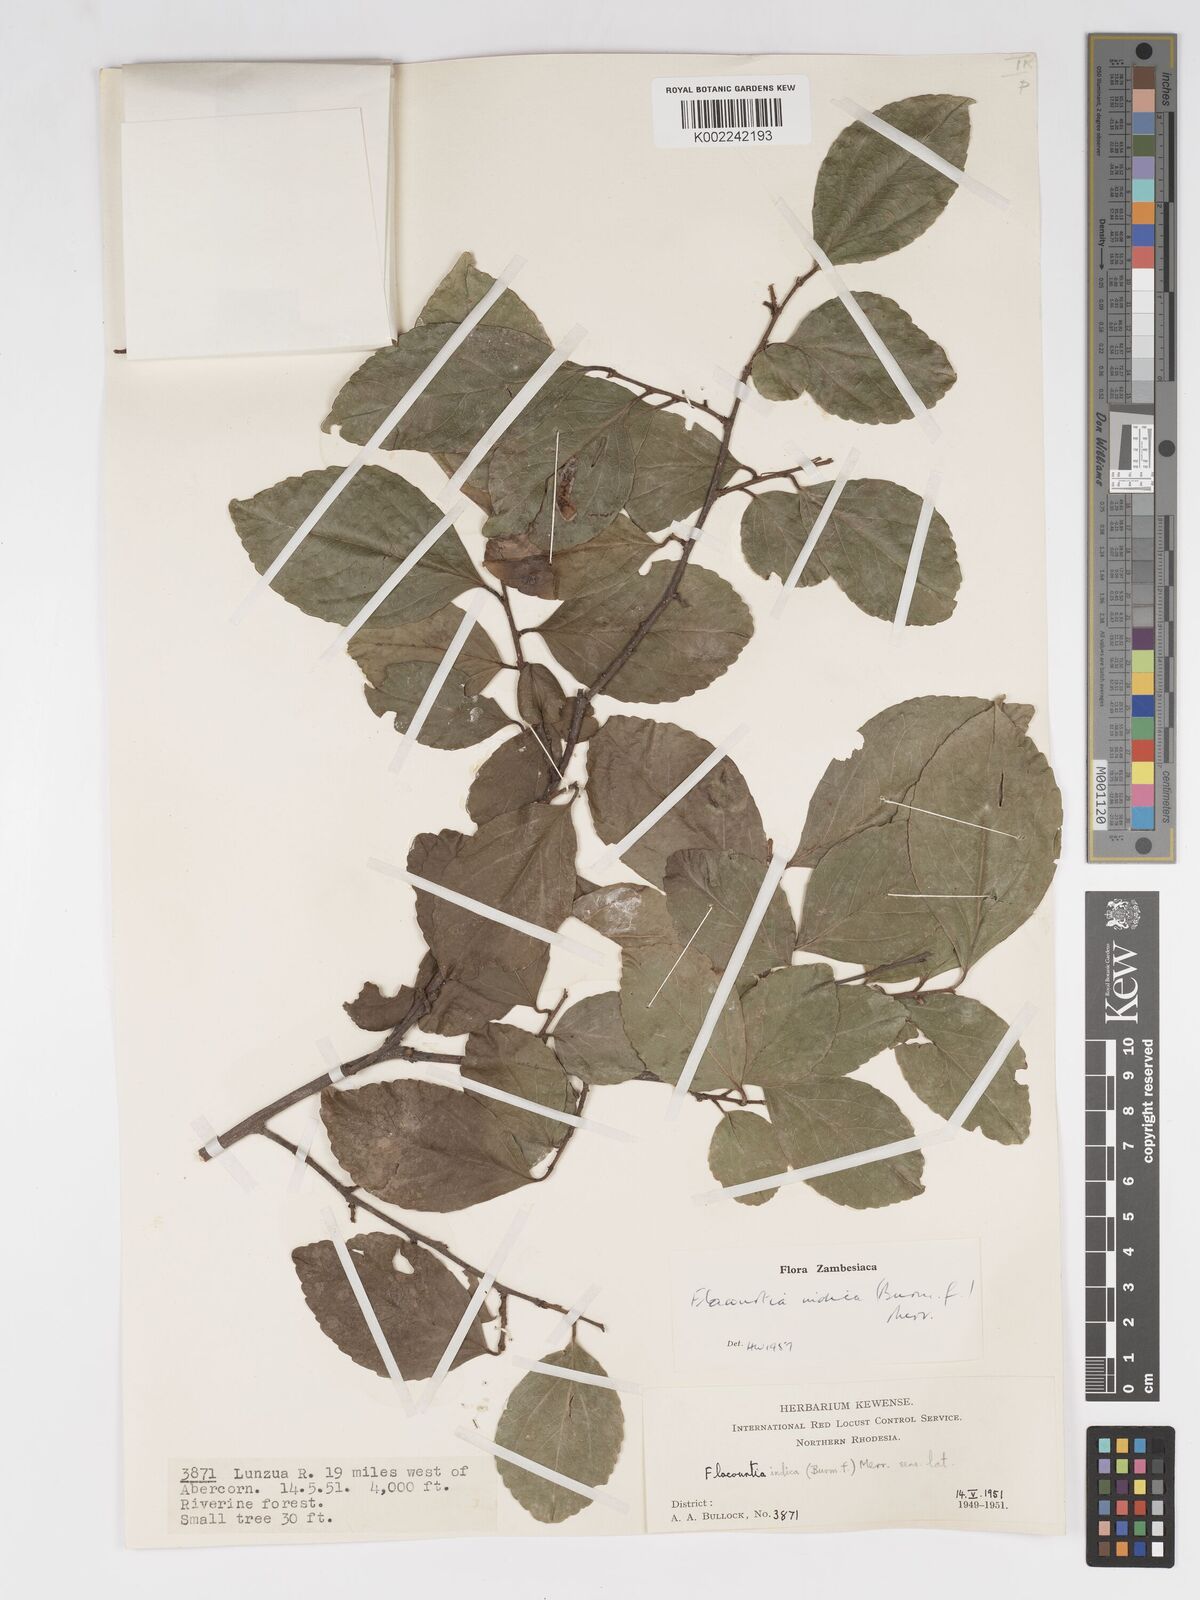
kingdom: Plantae
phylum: Tracheophyta
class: Magnoliopsida
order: Malpighiales
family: Salicaceae
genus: Flacourtia
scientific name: Flacourtia indica
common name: Governor's plum
